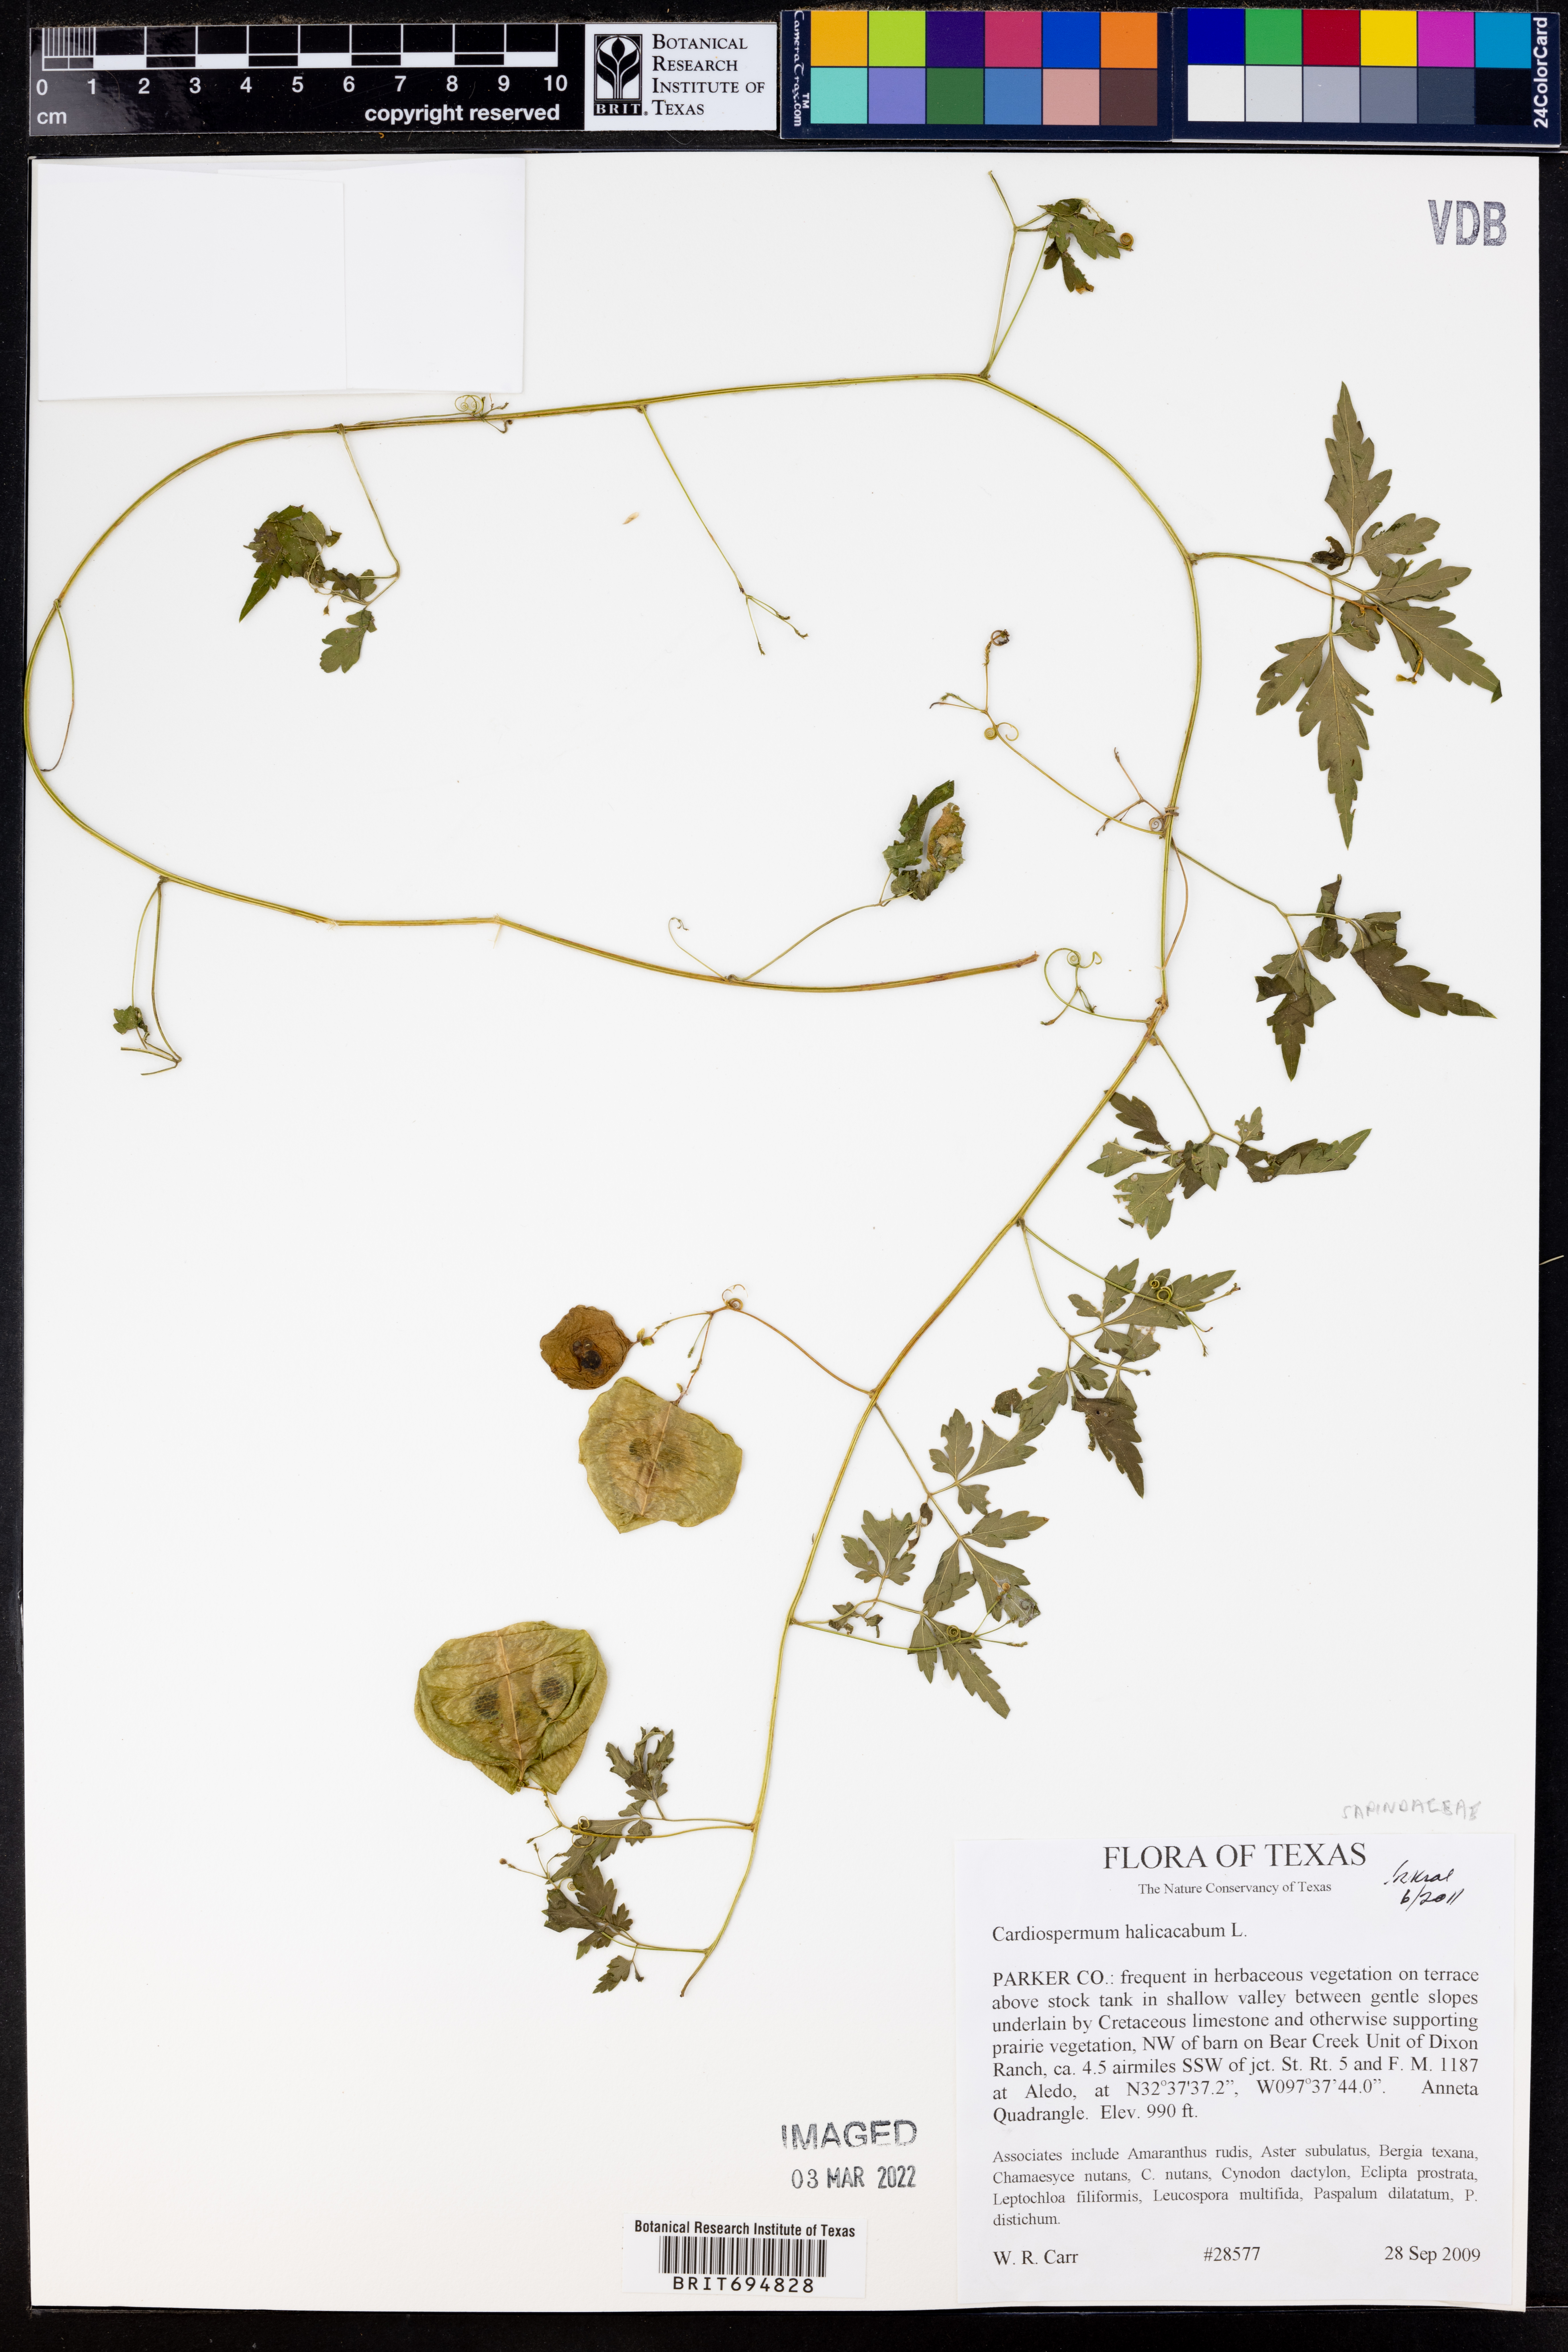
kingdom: Plantae
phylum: Tracheophyta
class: Magnoliopsida
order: Sapindales
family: Sapindaceae
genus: Cardiospermum
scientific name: Cardiospermum halicacabum
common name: Balloon vine
